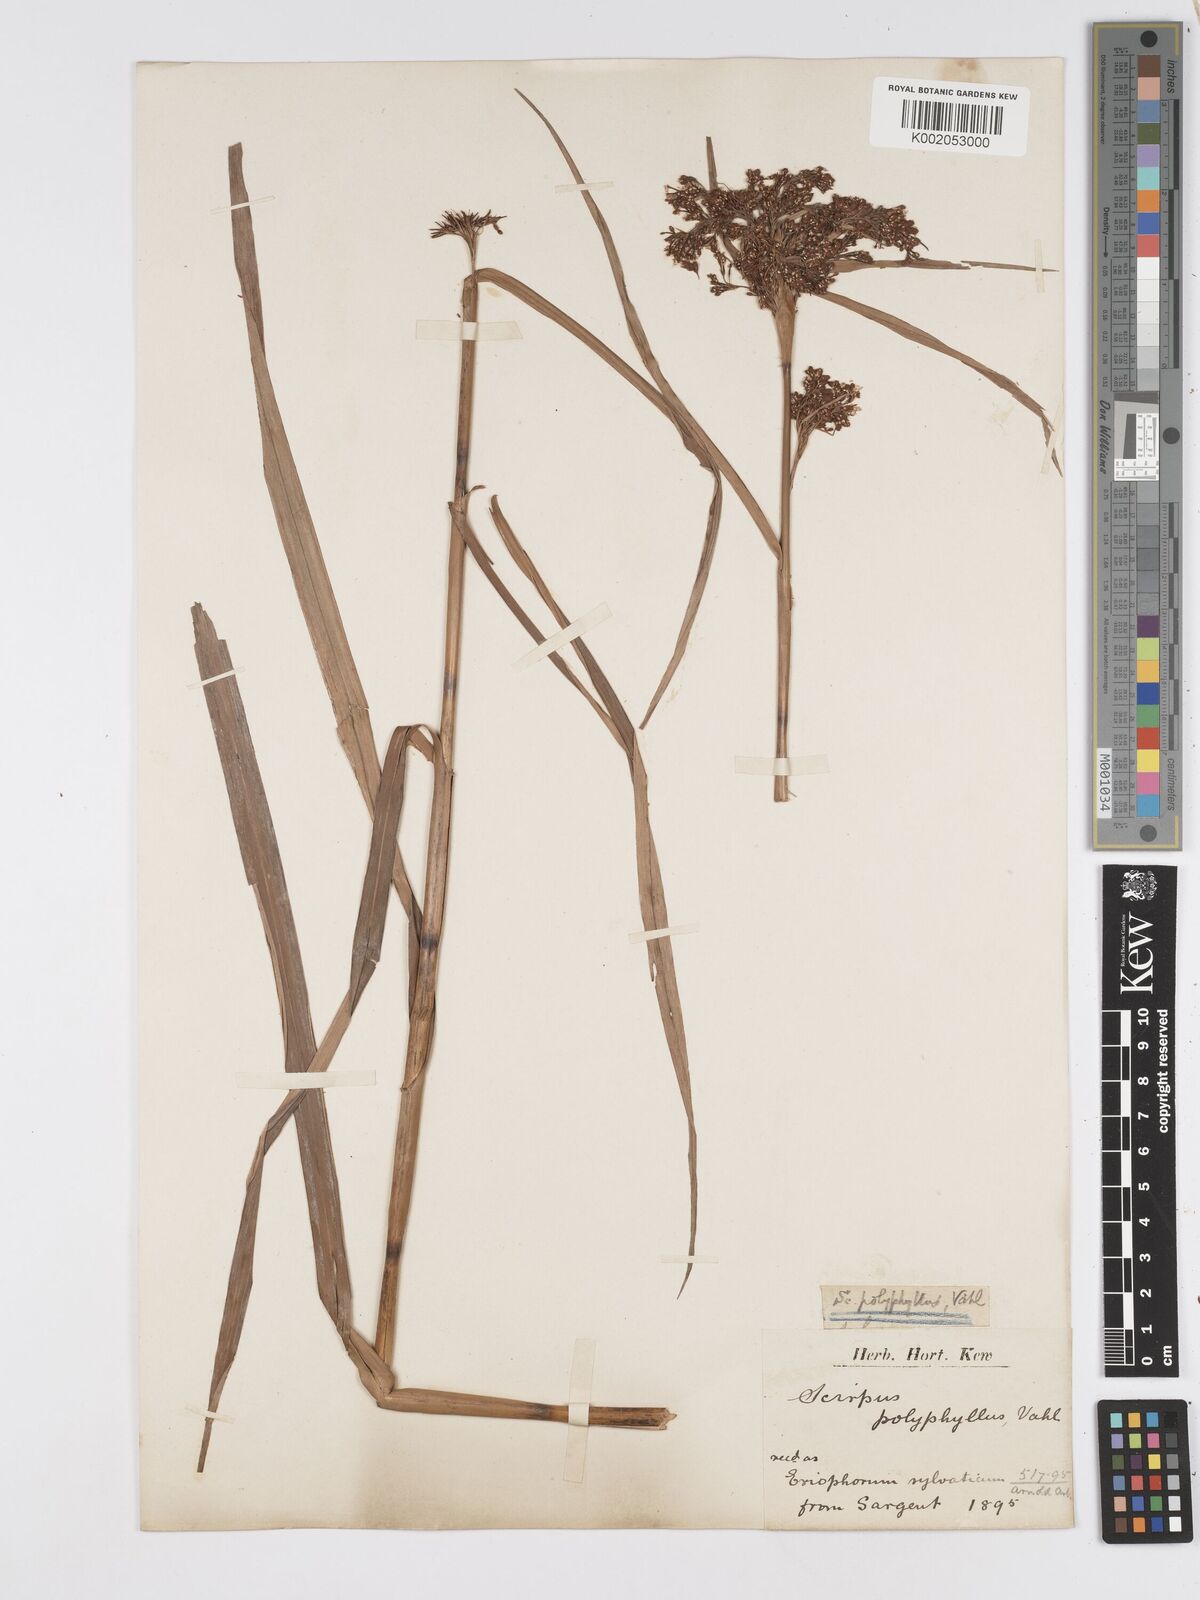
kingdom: Plantae
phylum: Tracheophyta
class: Liliopsida
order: Poales
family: Cyperaceae
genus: Scirpus
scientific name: Scirpus polyphyllus
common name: Leafy bulrush
